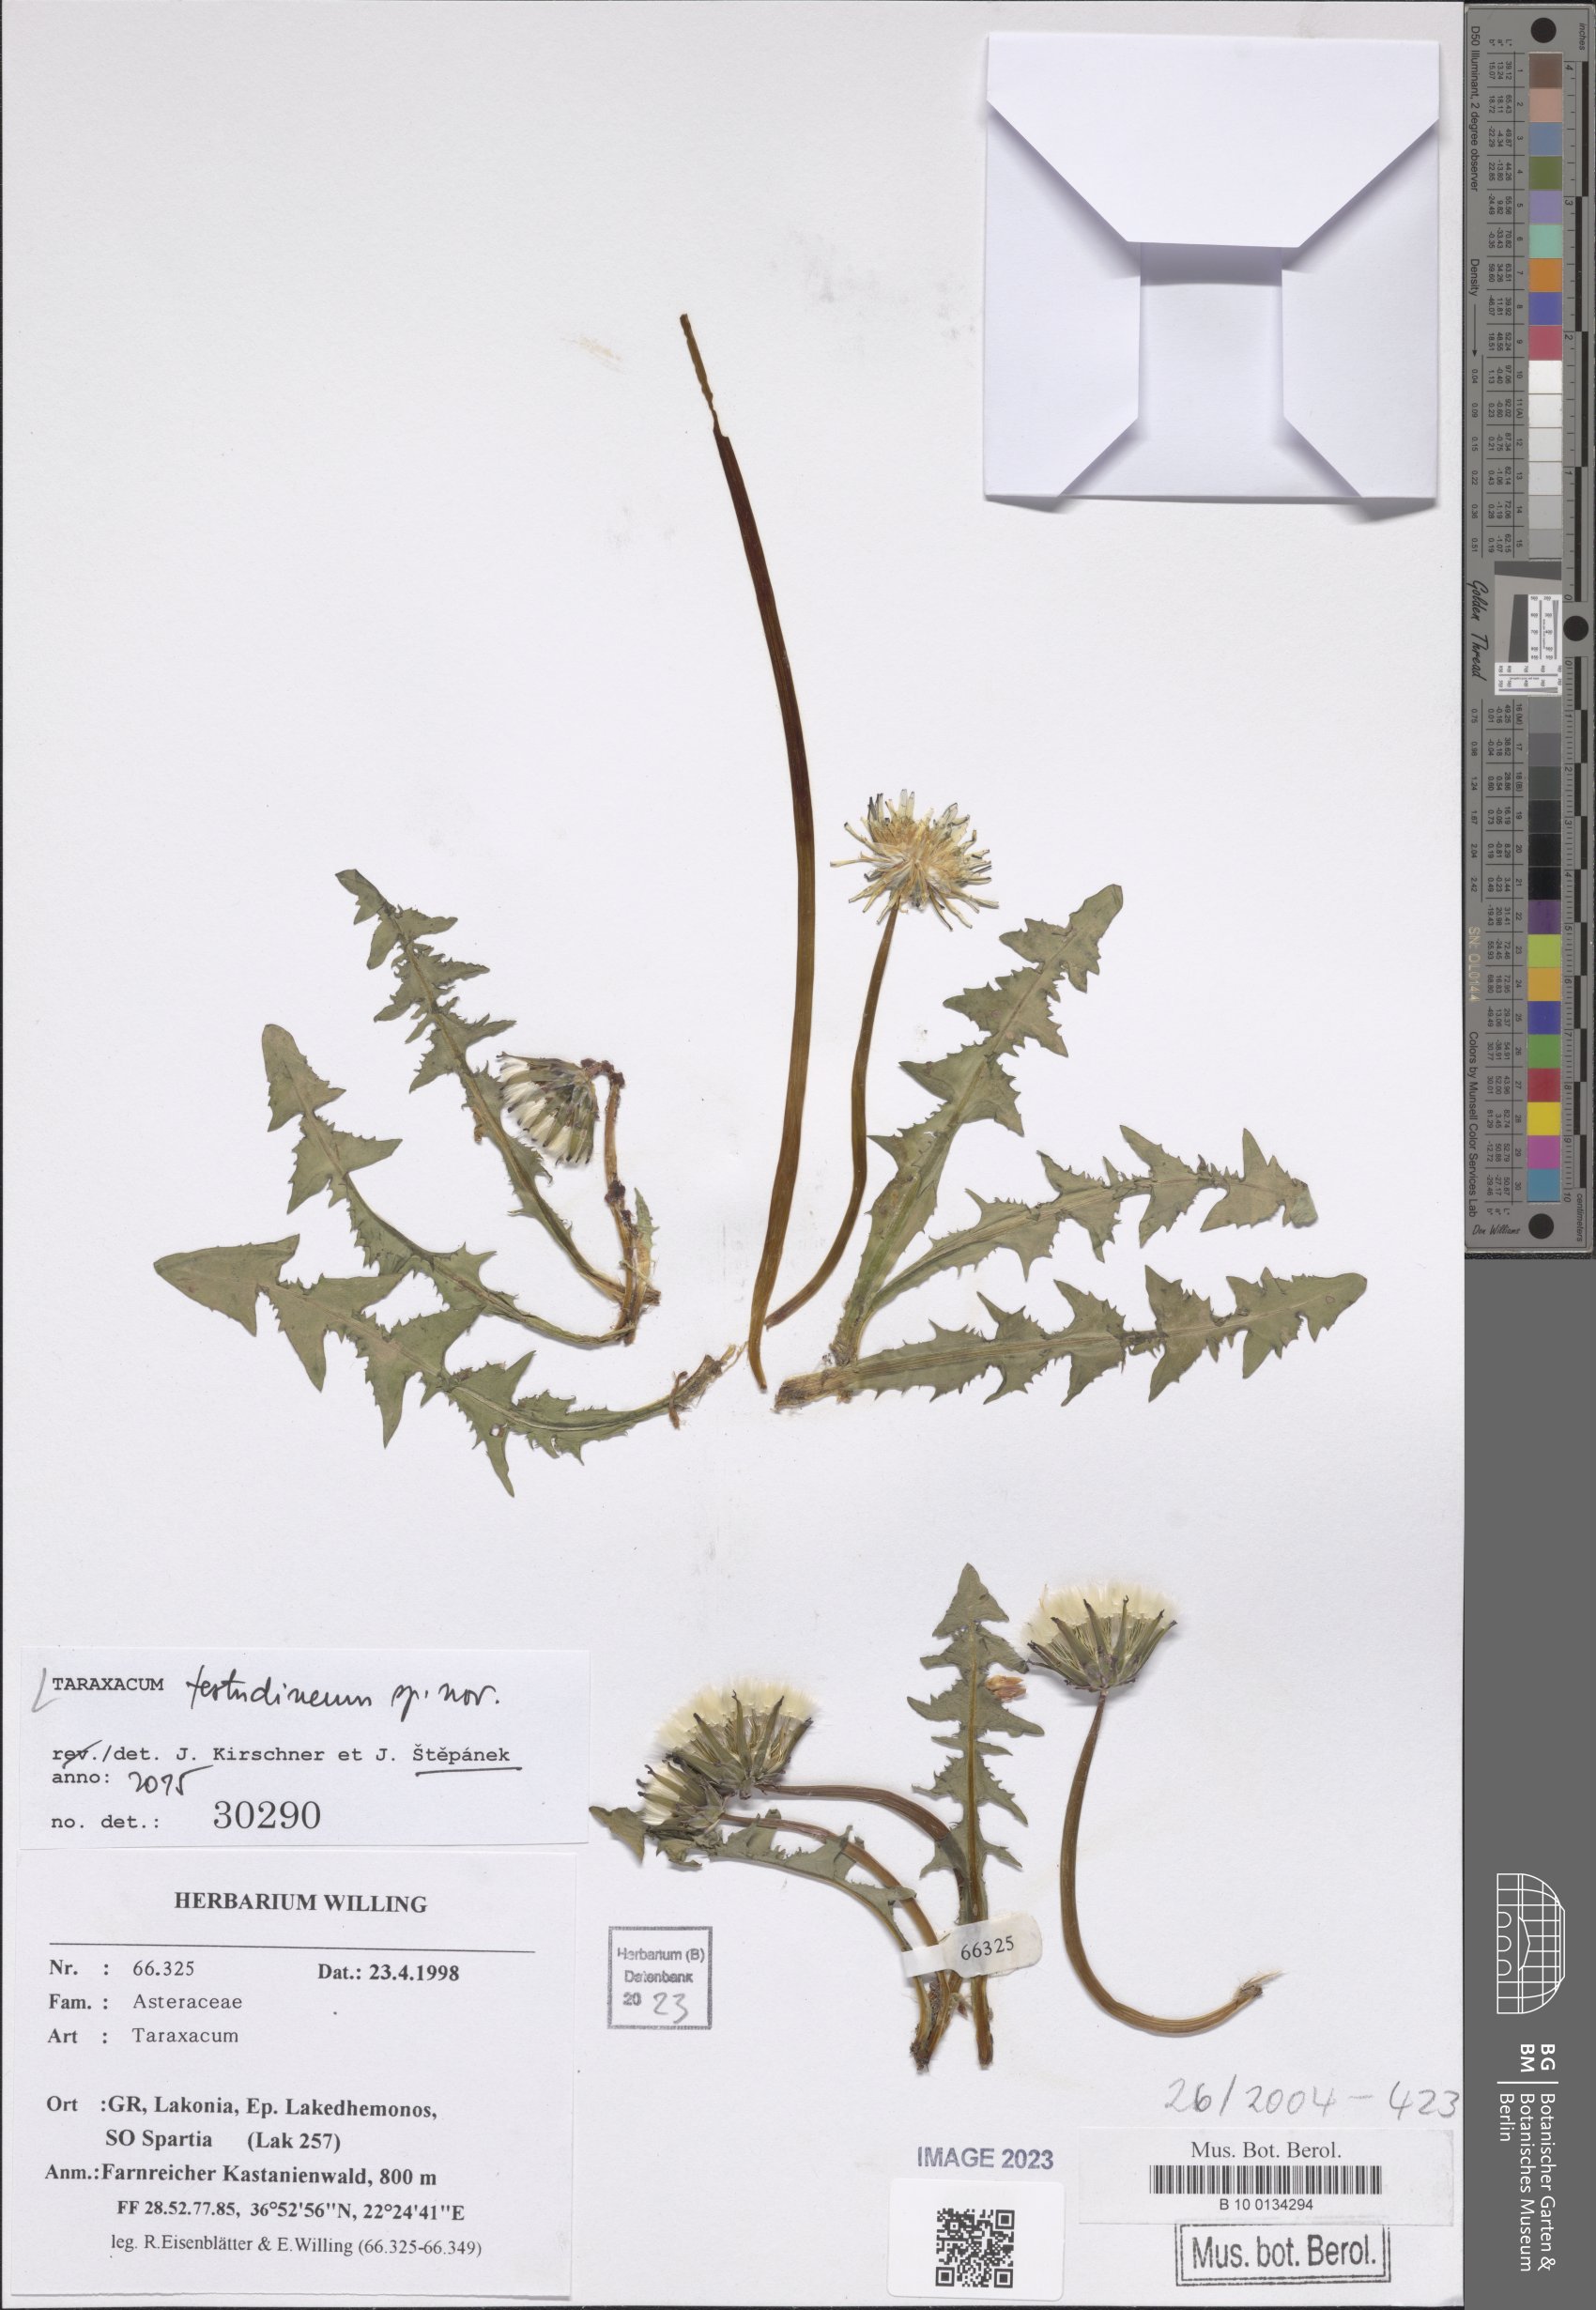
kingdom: Plantae
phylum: Tracheophyta
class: Magnoliopsida
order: Asterales
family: Asteraceae
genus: Taraxacum
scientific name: Taraxacum
